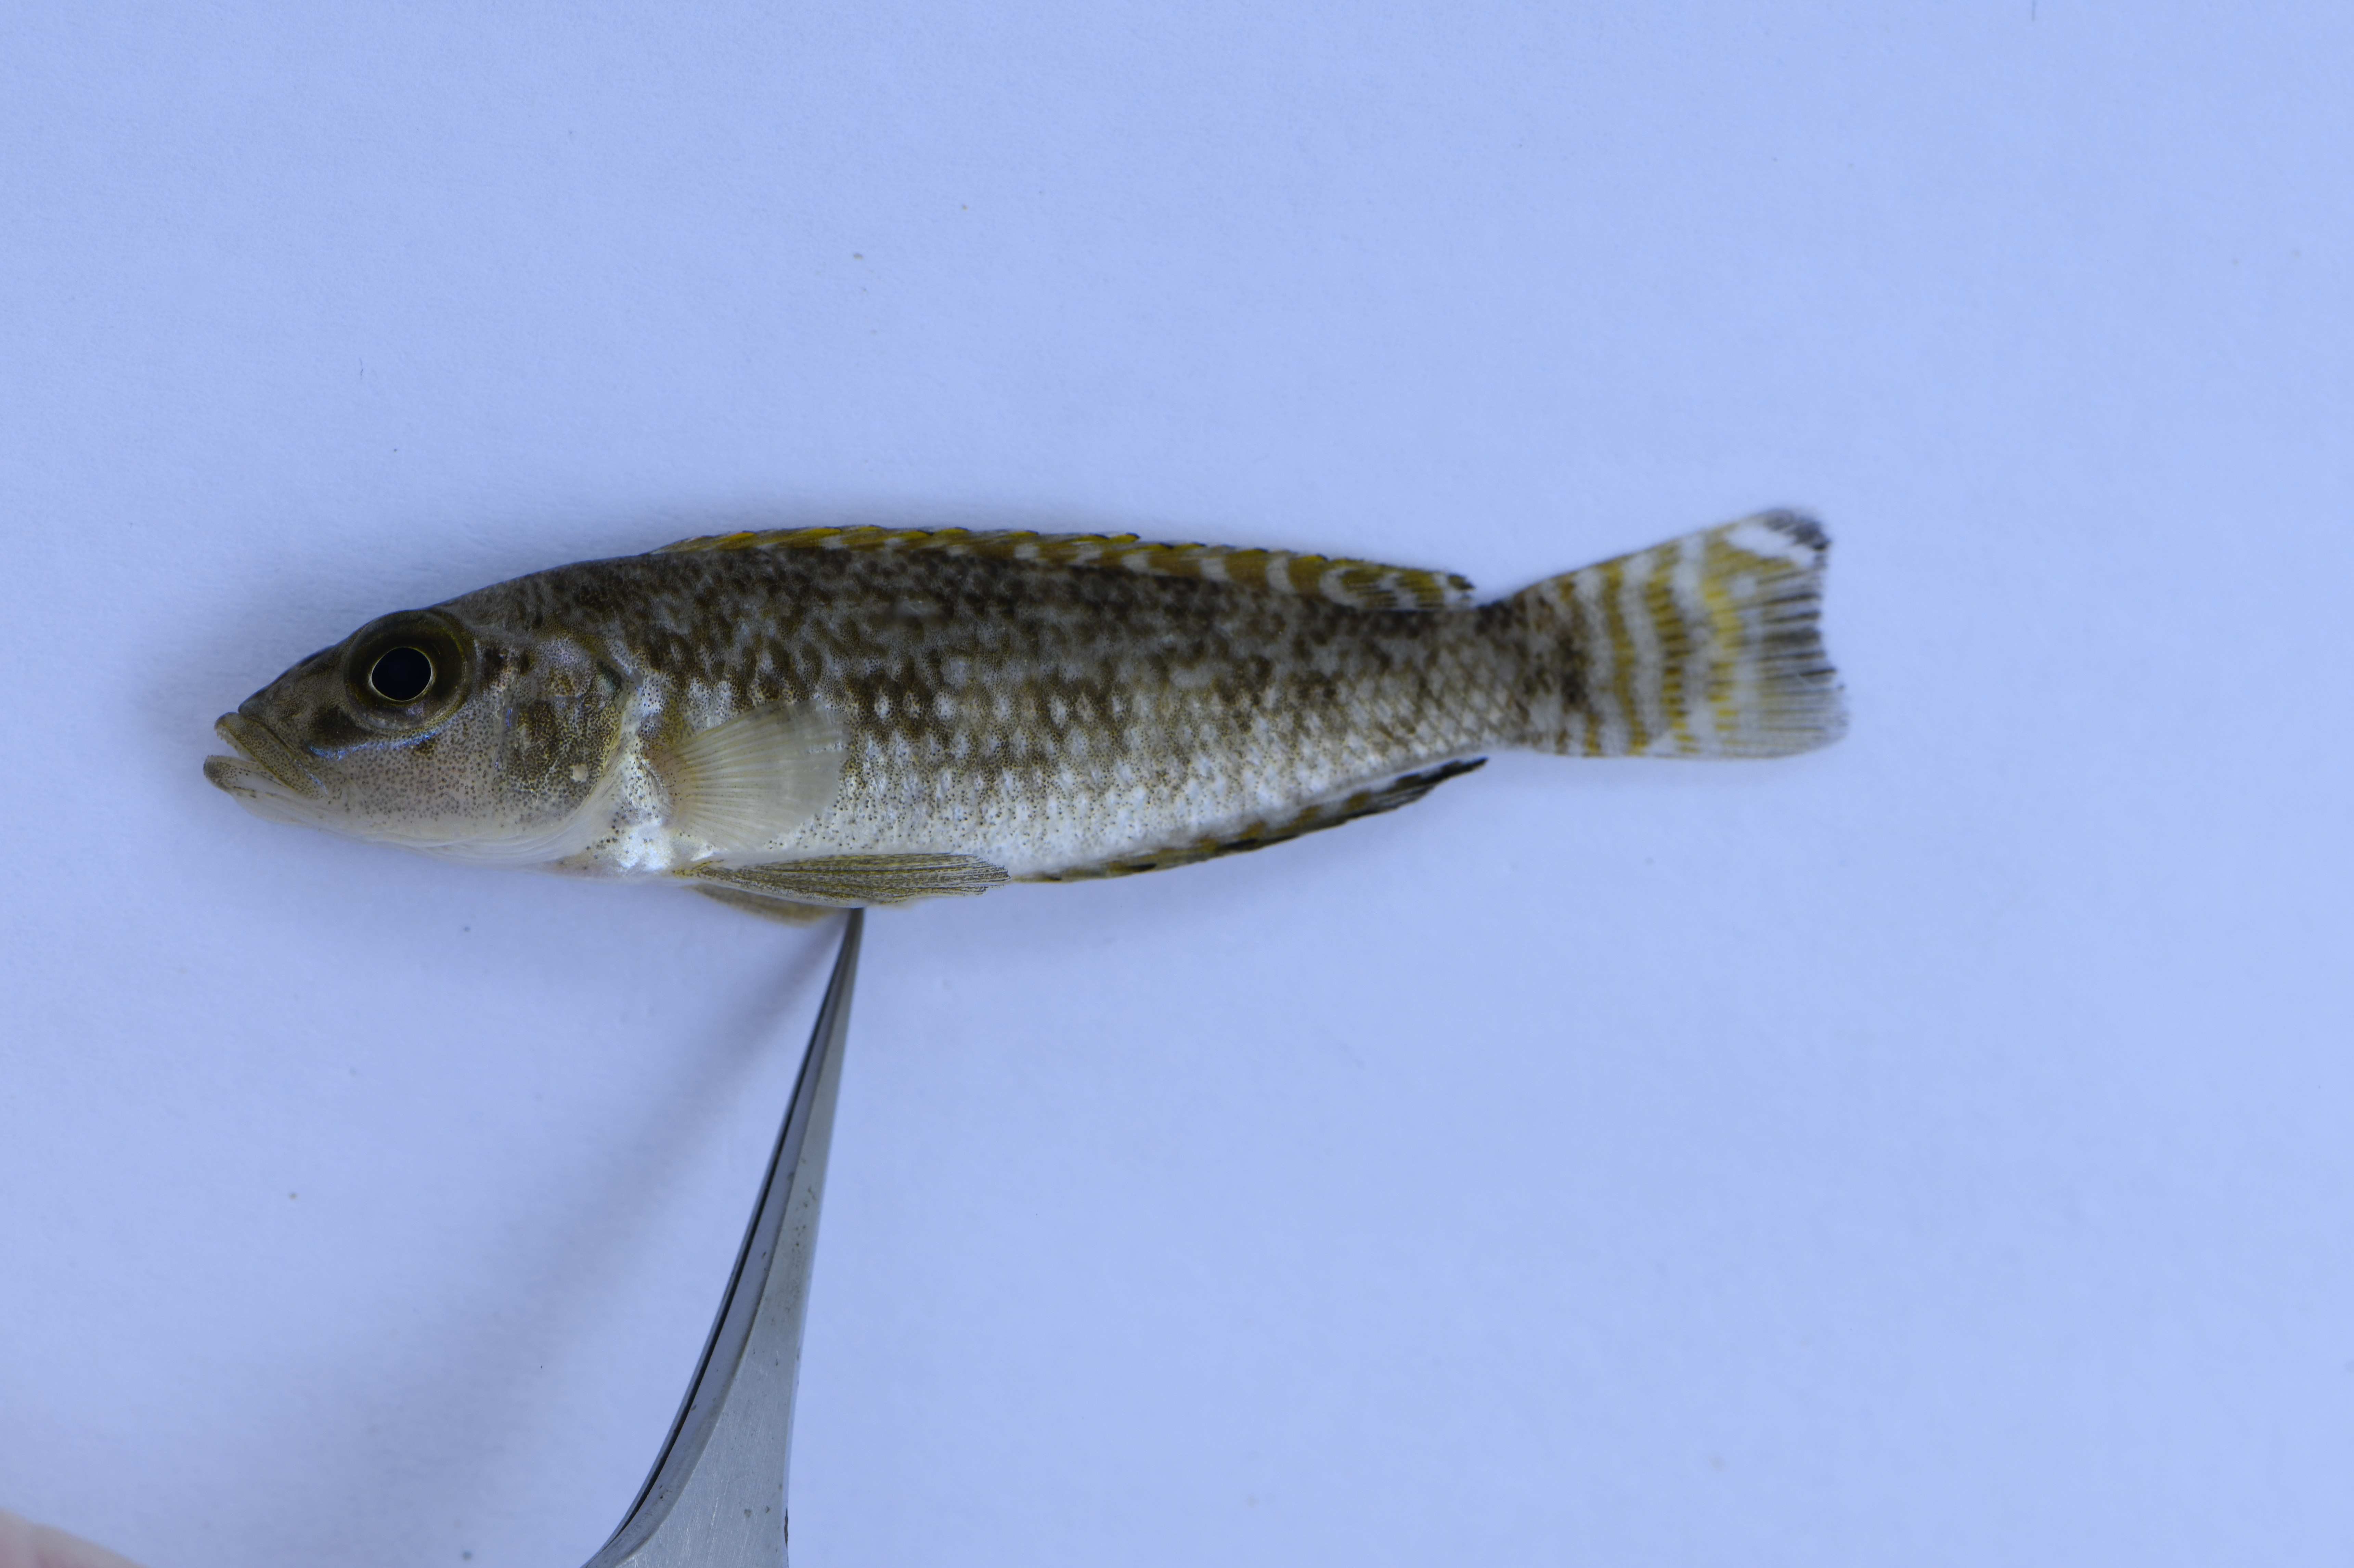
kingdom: Animalia
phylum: Chordata
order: Perciformes
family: Cichlidae
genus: Lamprologus
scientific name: Lamprologus callipterus
